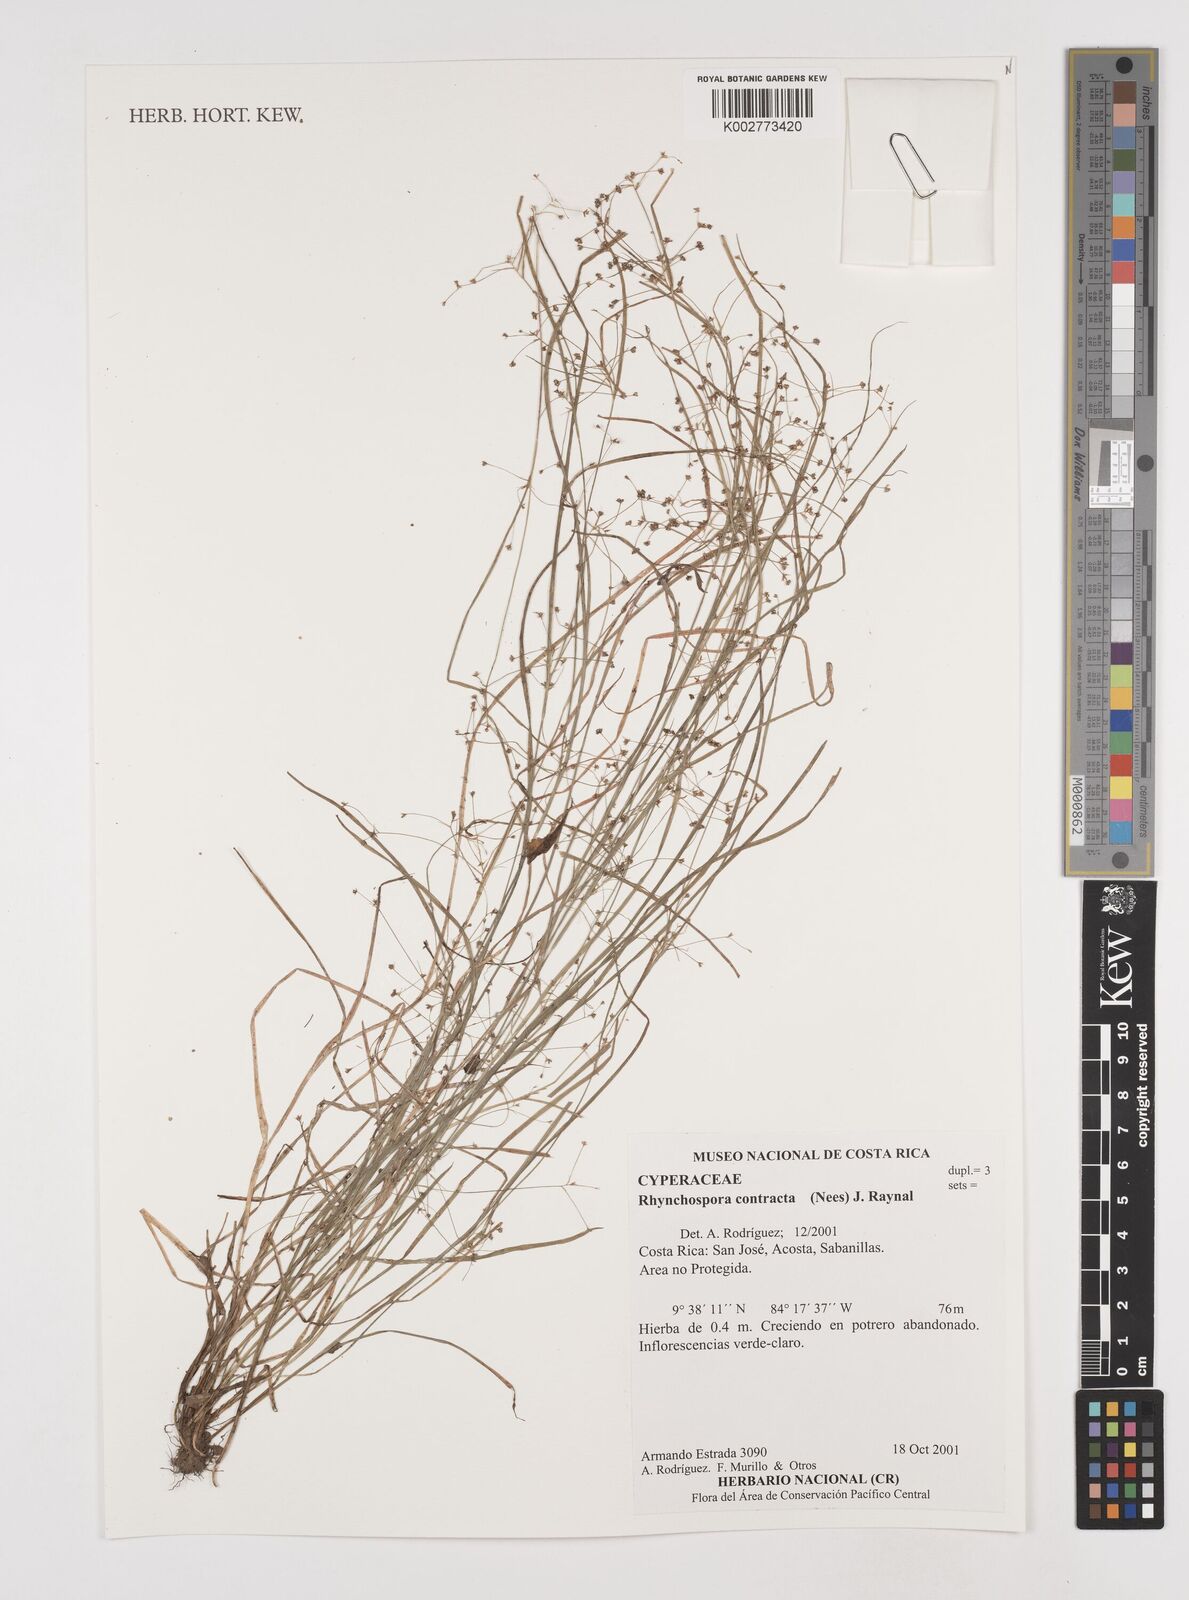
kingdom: Plantae
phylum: Tracheophyta
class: Liliopsida
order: Poales
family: Cyperaceae
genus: Rhynchospora
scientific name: Rhynchospora contracta
